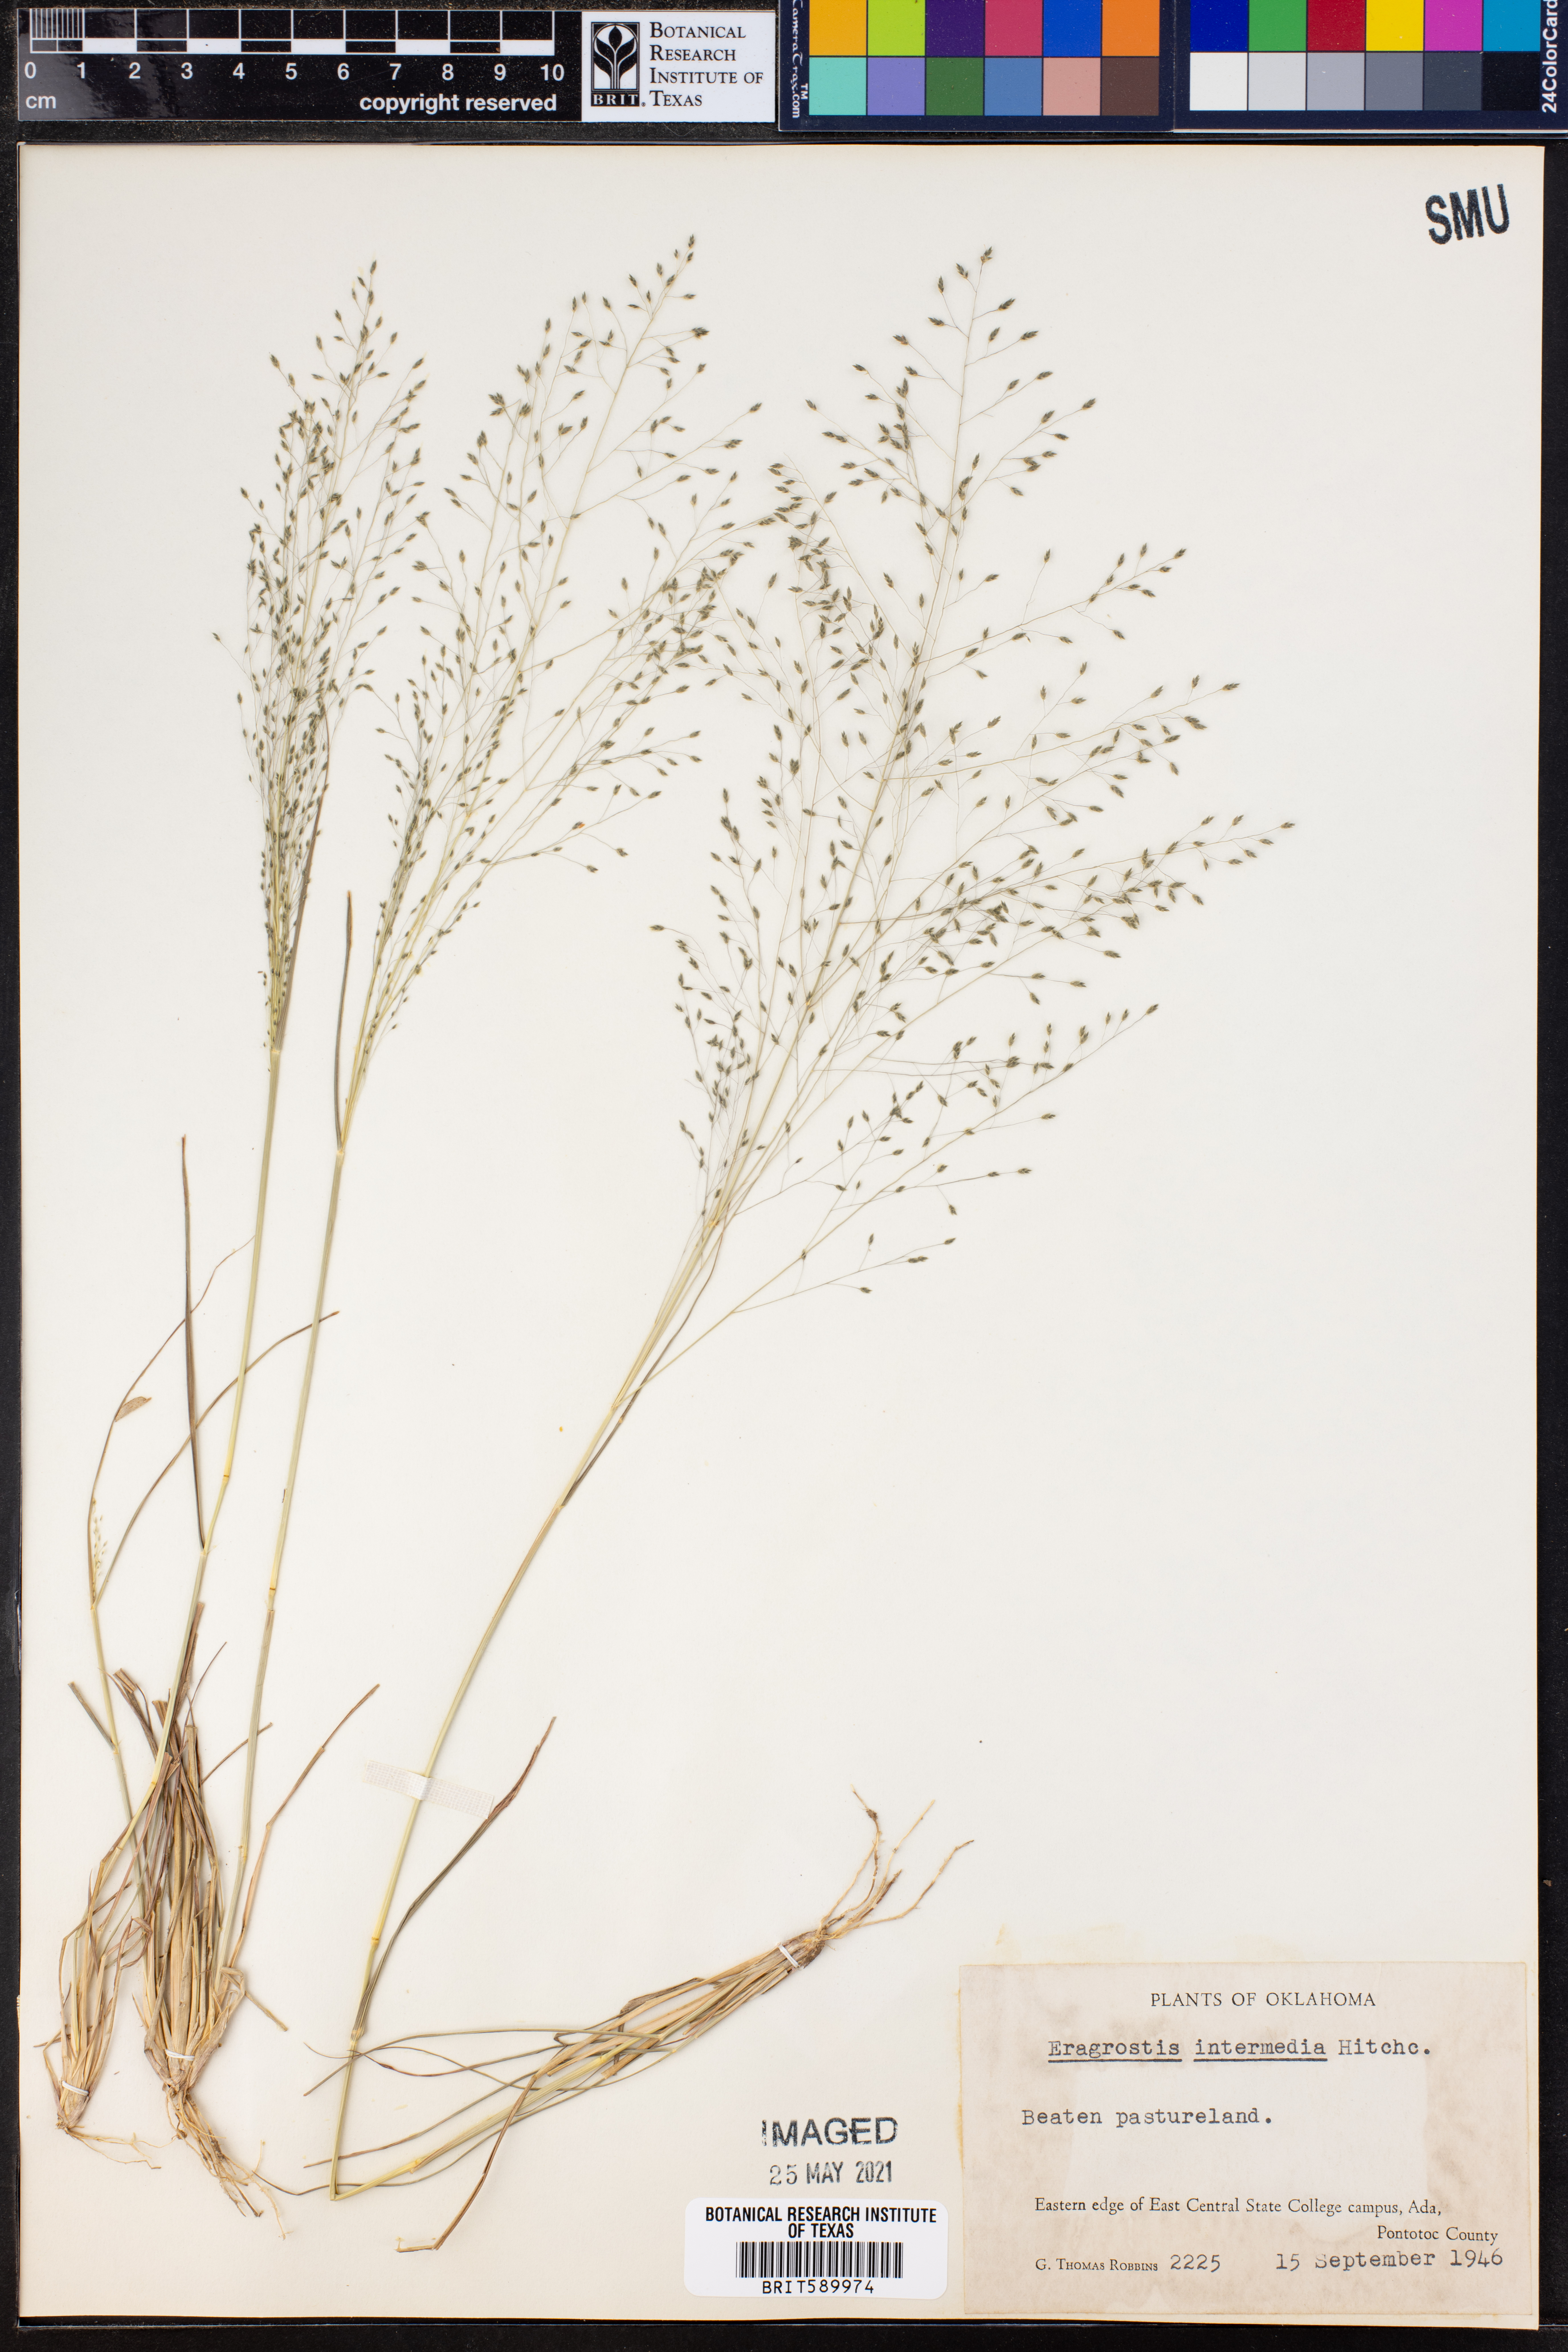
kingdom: Plantae
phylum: Tracheophyta
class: Liliopsida
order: Poales
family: Poaceae
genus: Eragrostis
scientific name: Eragrostis intermedia
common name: Plains love grass
